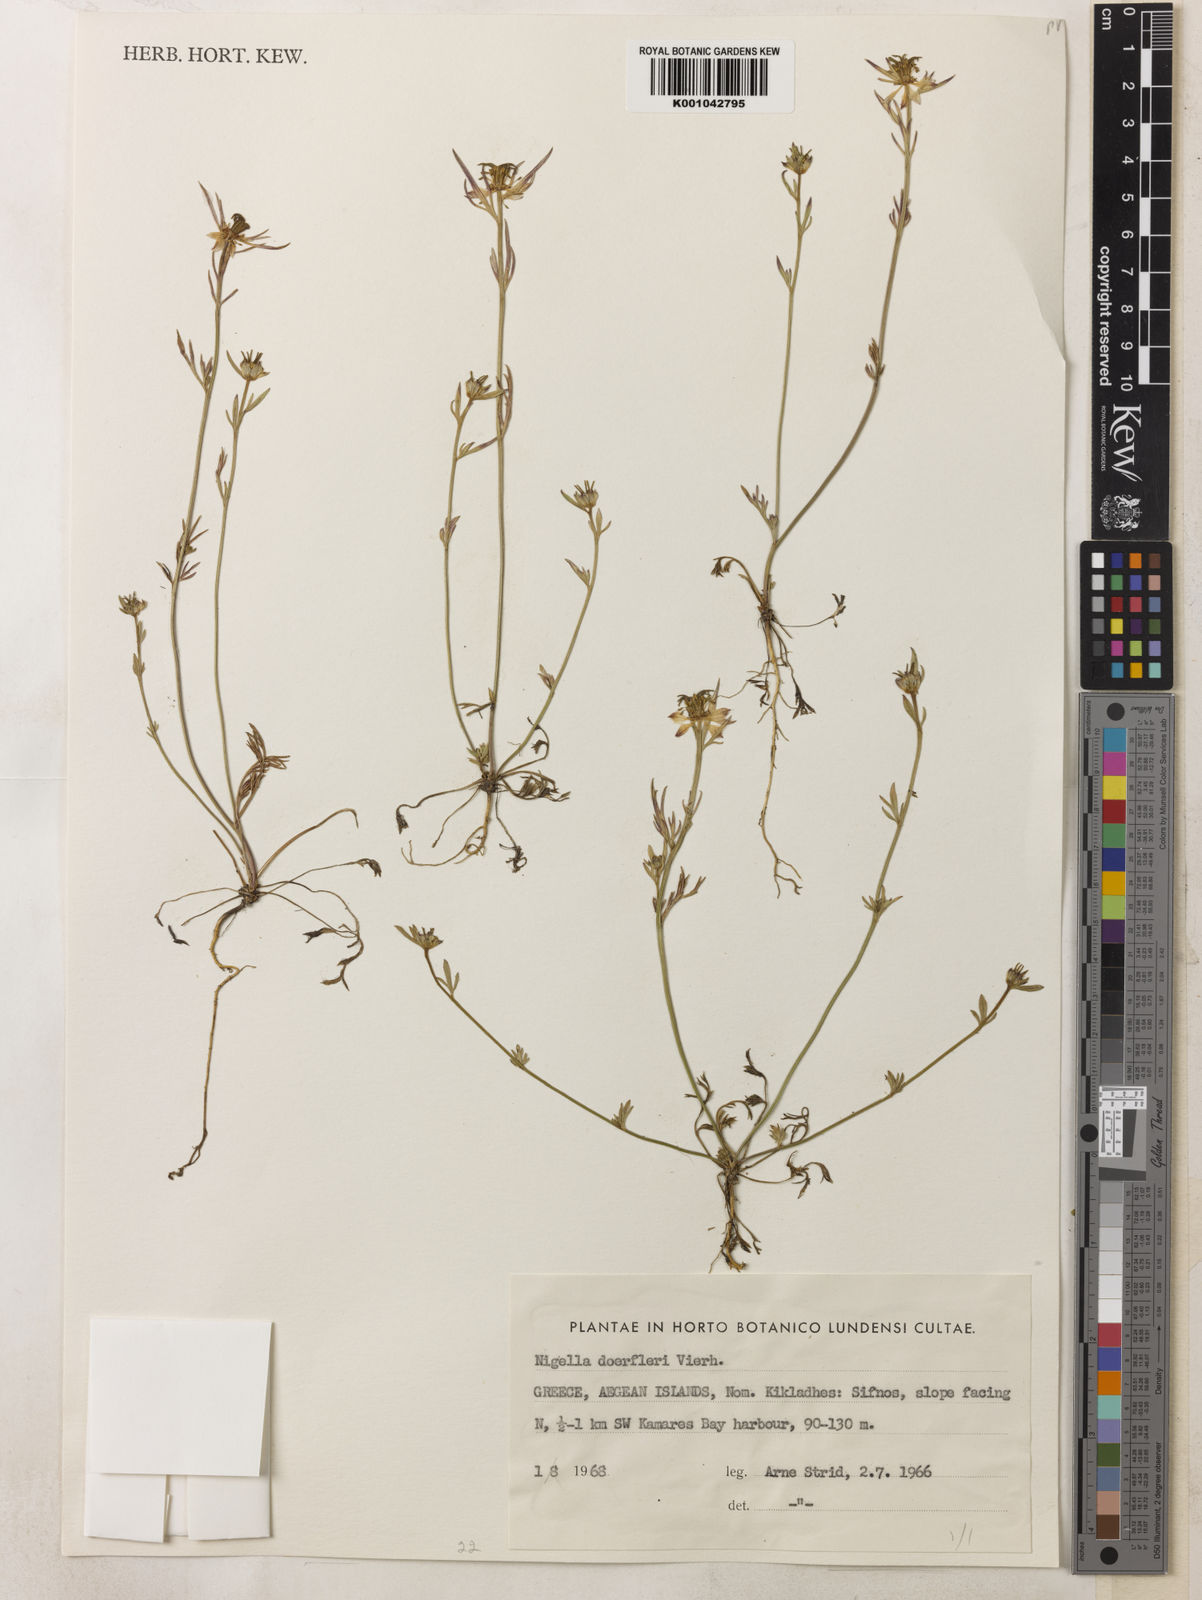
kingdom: Plantae
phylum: Tracheophyta
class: Magnoliopsida
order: Ranunculales
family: Ranunculaceae
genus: Nigella
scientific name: Nigella doerfleri
